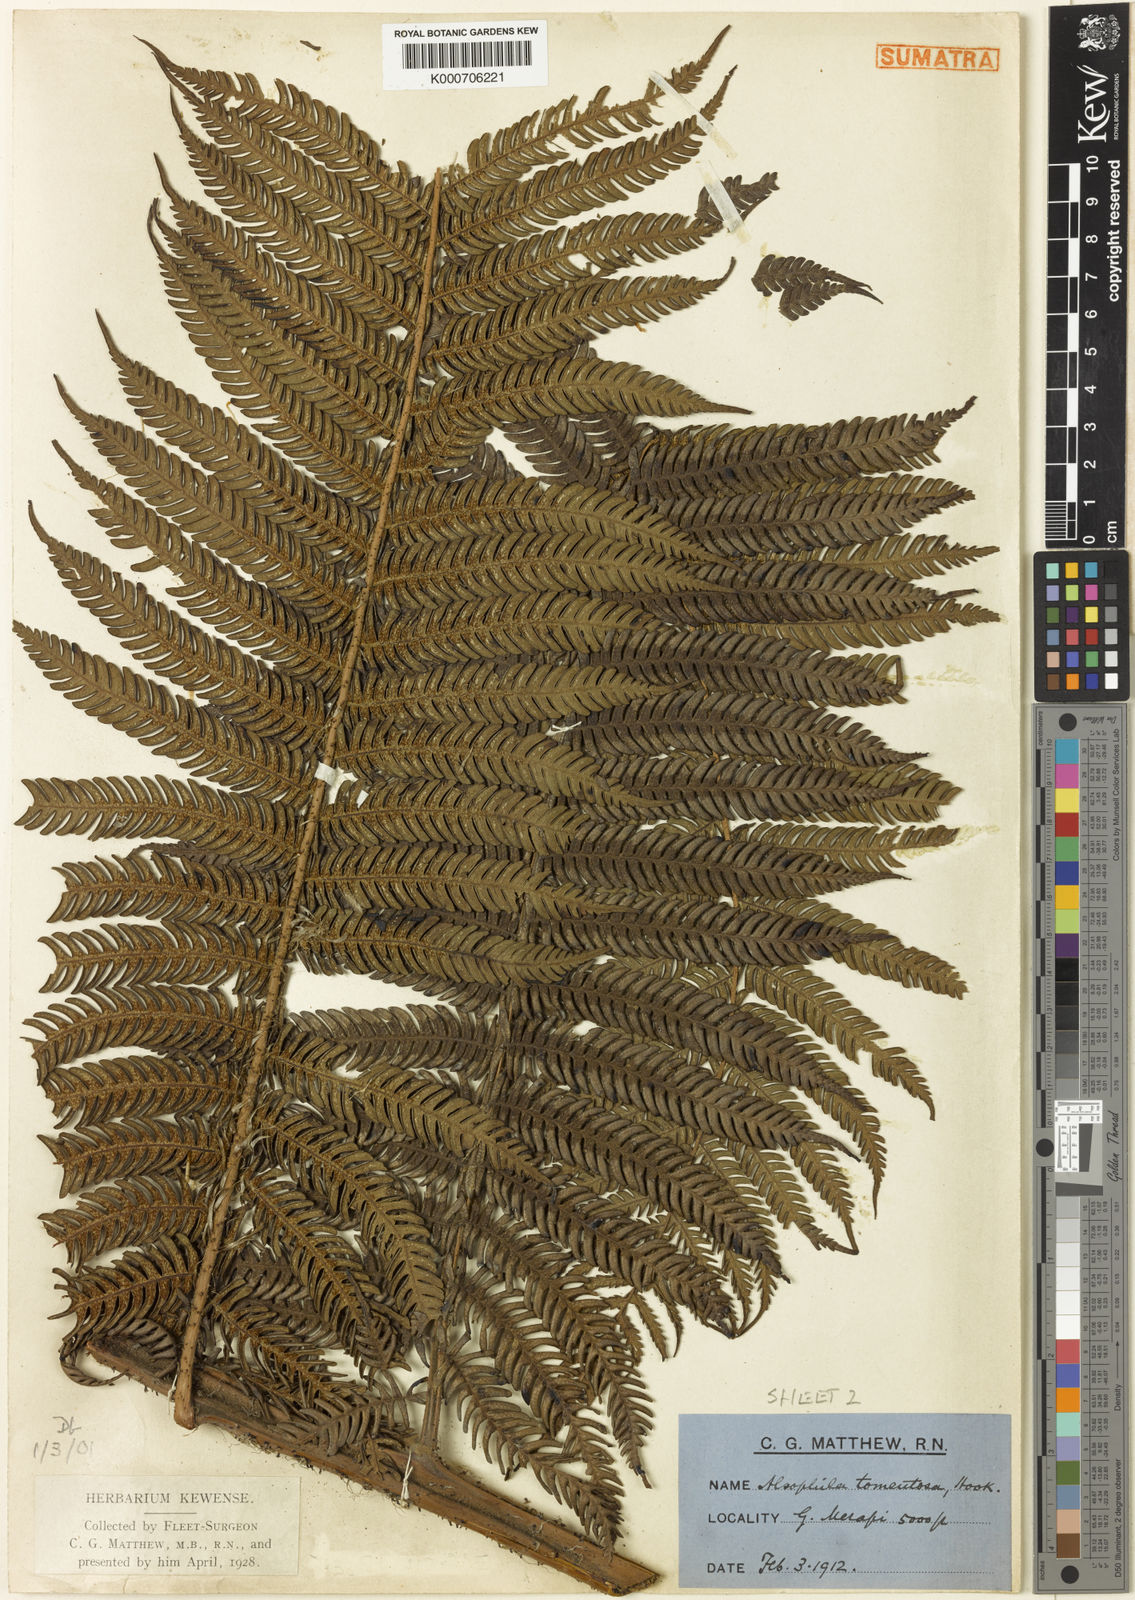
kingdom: Plantae
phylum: Tracheophyta
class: Polypodiopsida
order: Cyatheales
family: Cyatheaceae
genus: Sphaeropteris
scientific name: Sphaeropteris verrucosa
